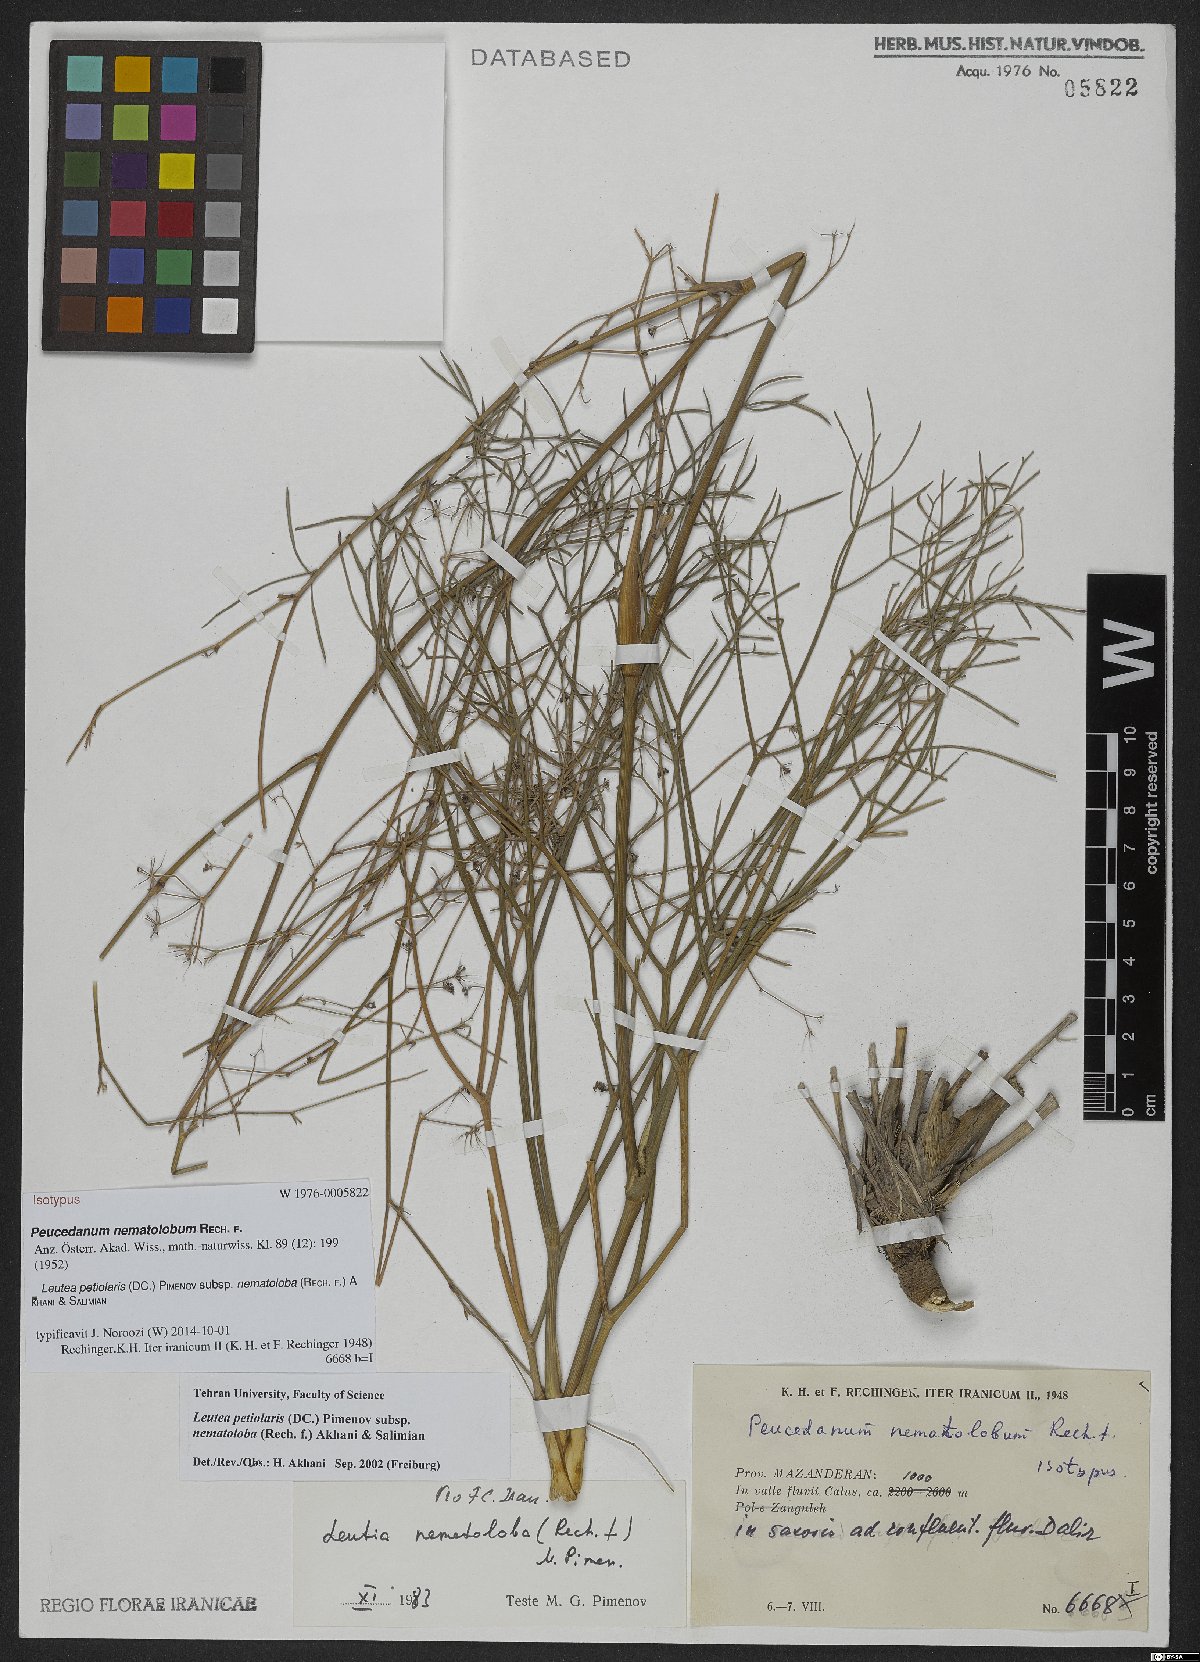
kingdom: Plantae
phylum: Tracheophyta
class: Magnoliopsida
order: Apiales
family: Apiaceae
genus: Leutea
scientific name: Leutea nematoloba
